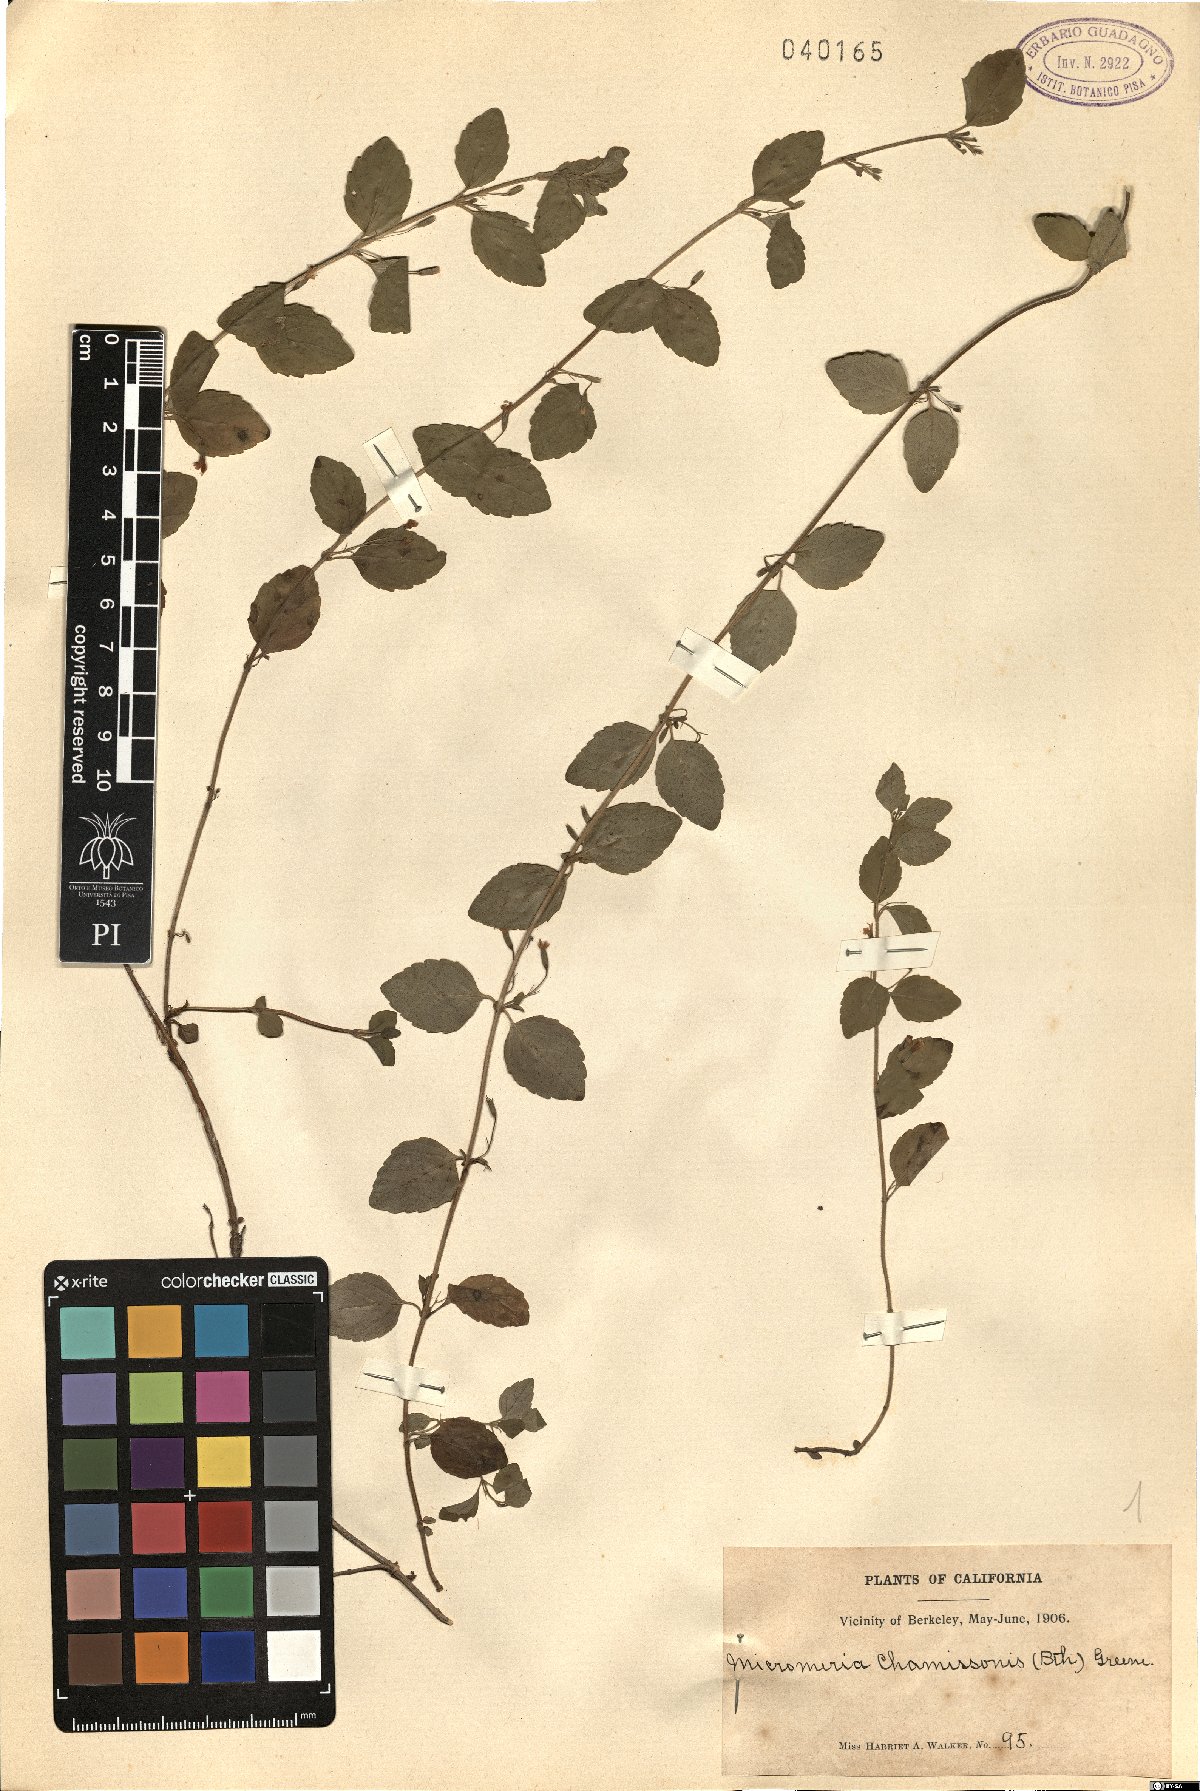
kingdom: Plantae
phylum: Tracheophyta
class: Magnoliopsida
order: Lamiales
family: Lamiaceae
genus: Micromeria
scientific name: Micromeria douglasii
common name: Yerba buena
